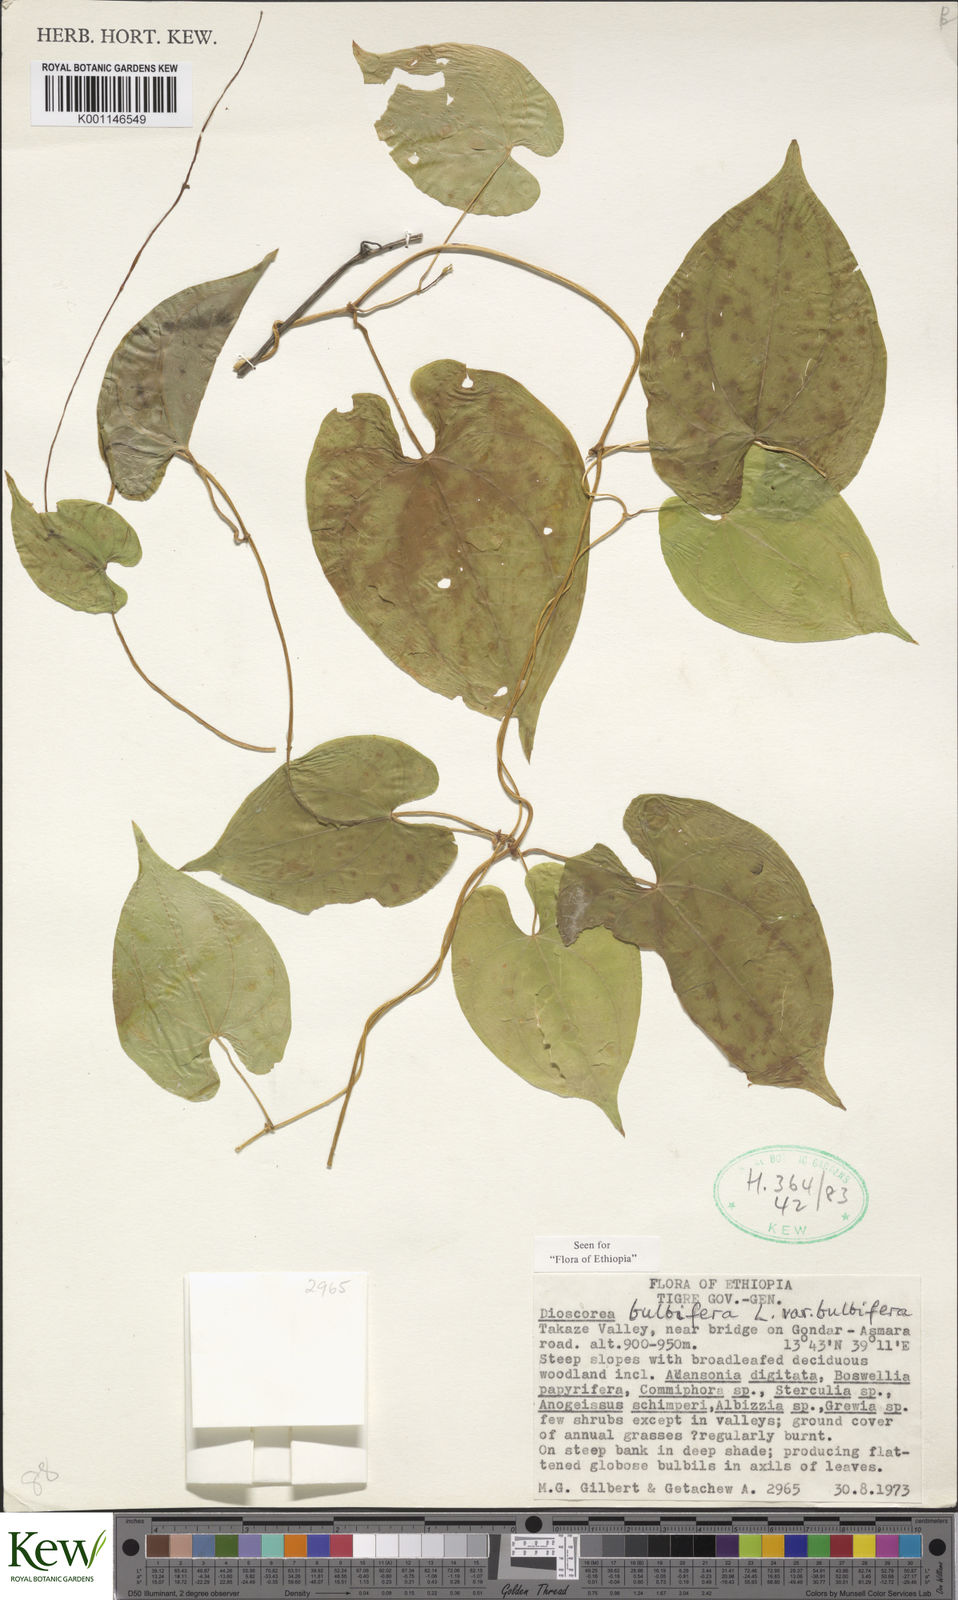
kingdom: Plantae
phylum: Tracheophyta
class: Liliopsida
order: Dioscoreales
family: Dioscoreaceae
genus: Dioscorea
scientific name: Dioscorea bulbifera
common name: Air yam
